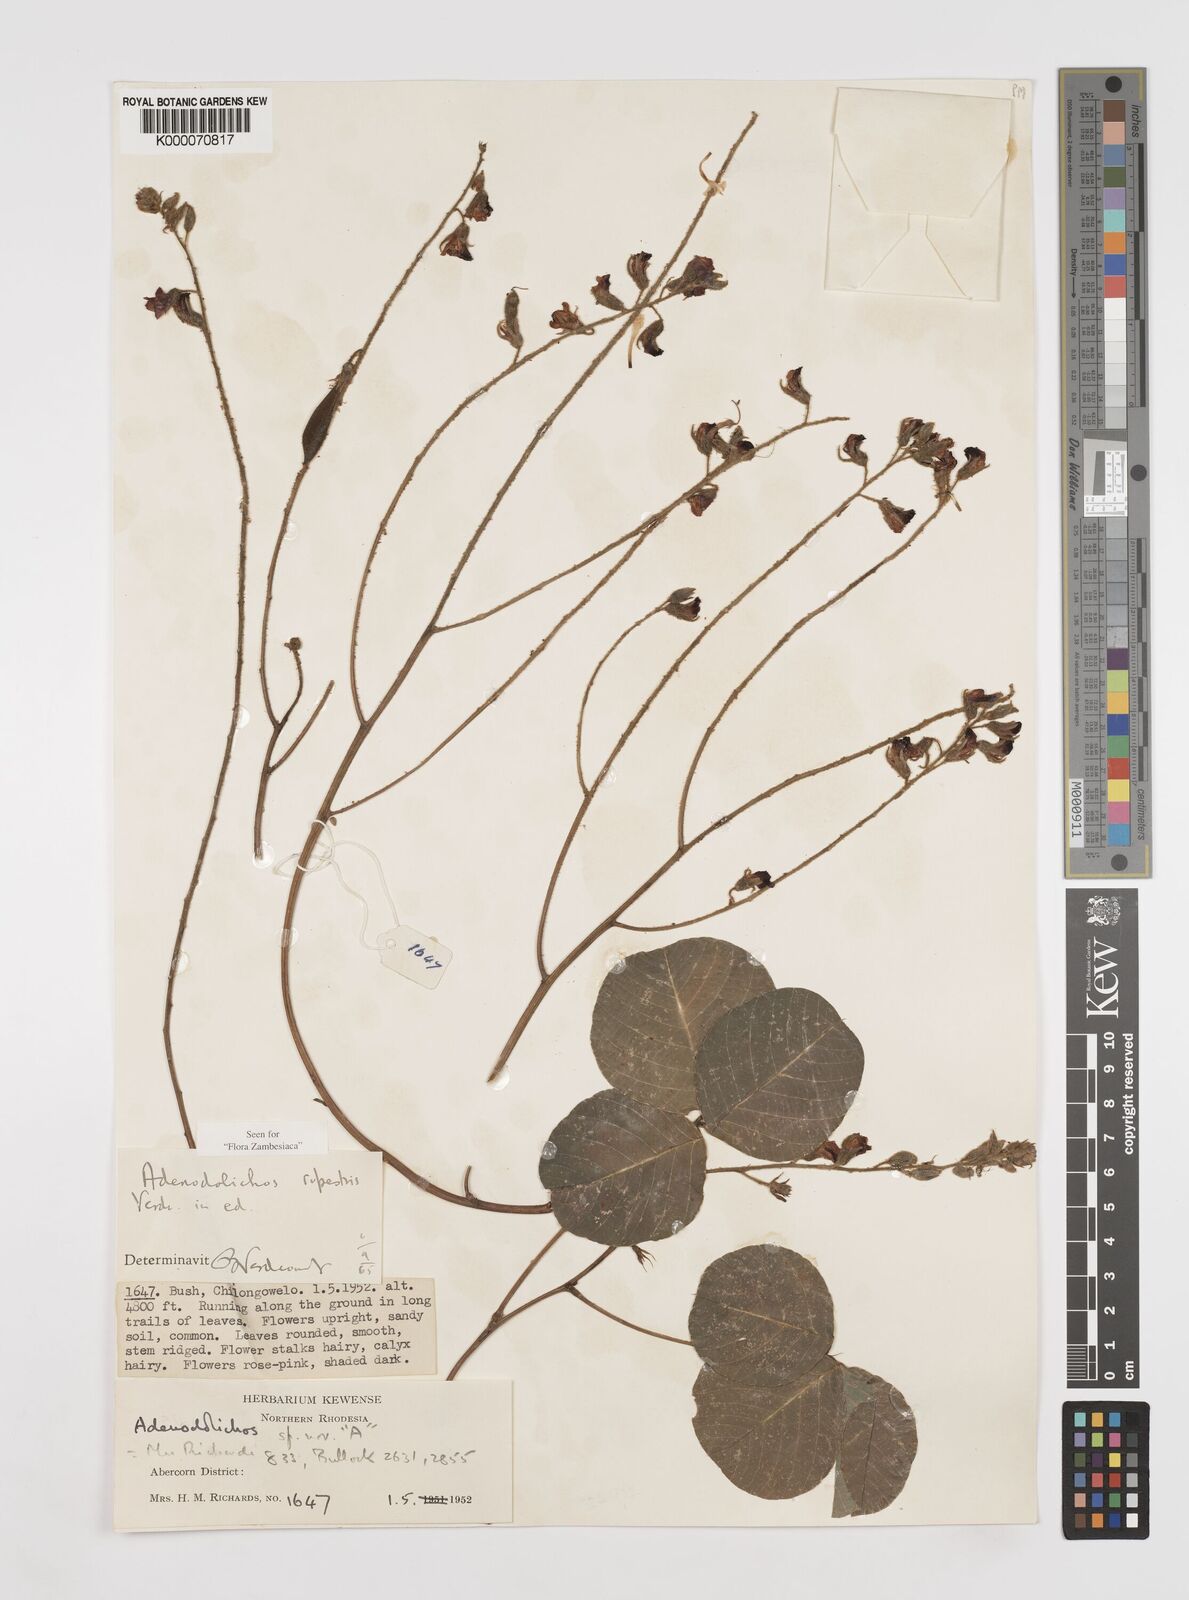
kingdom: Plantae
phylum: Tracheophyta
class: Magnoliopsida
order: Fabales
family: Fabaceae
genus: Adenodolichos
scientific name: Adenodolichos rupestris
